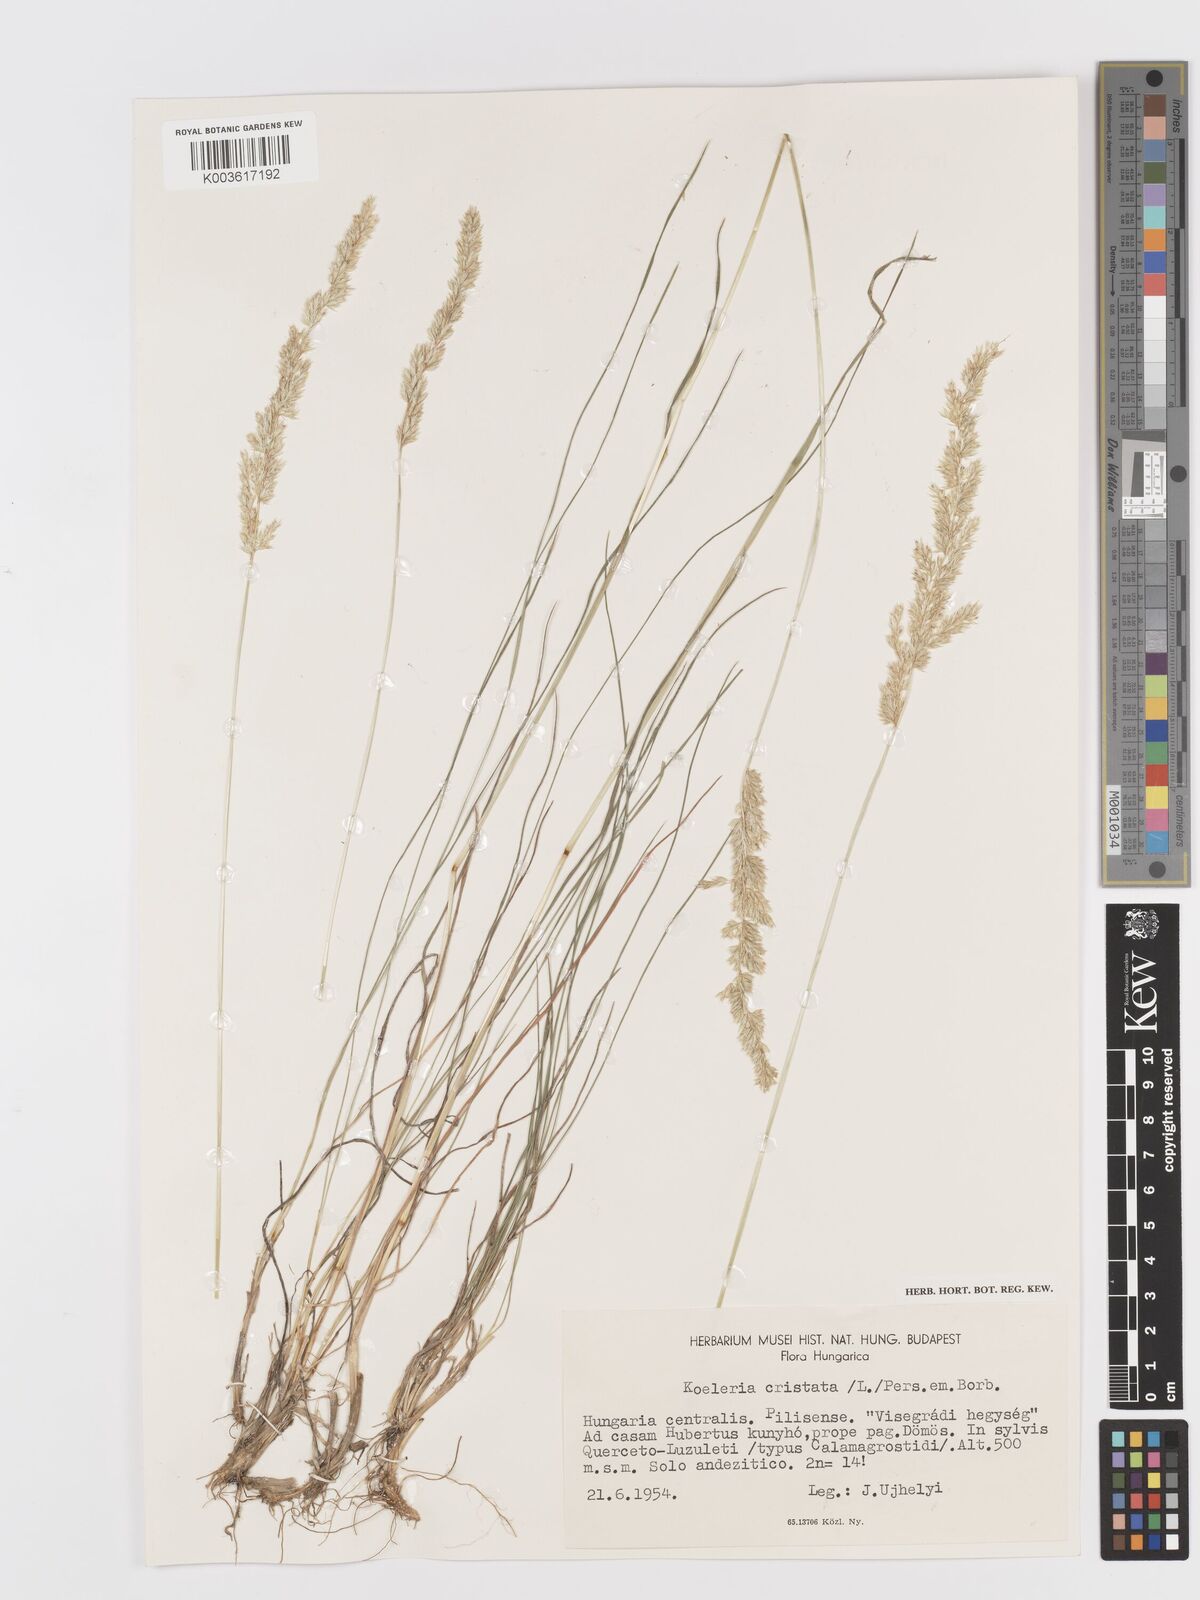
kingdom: Plantae
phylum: Tracheophyta
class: Liliopsida
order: Poales
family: Poaceae
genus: Koeleria
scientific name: Koeleria macrantha
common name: Crested hair-grass
